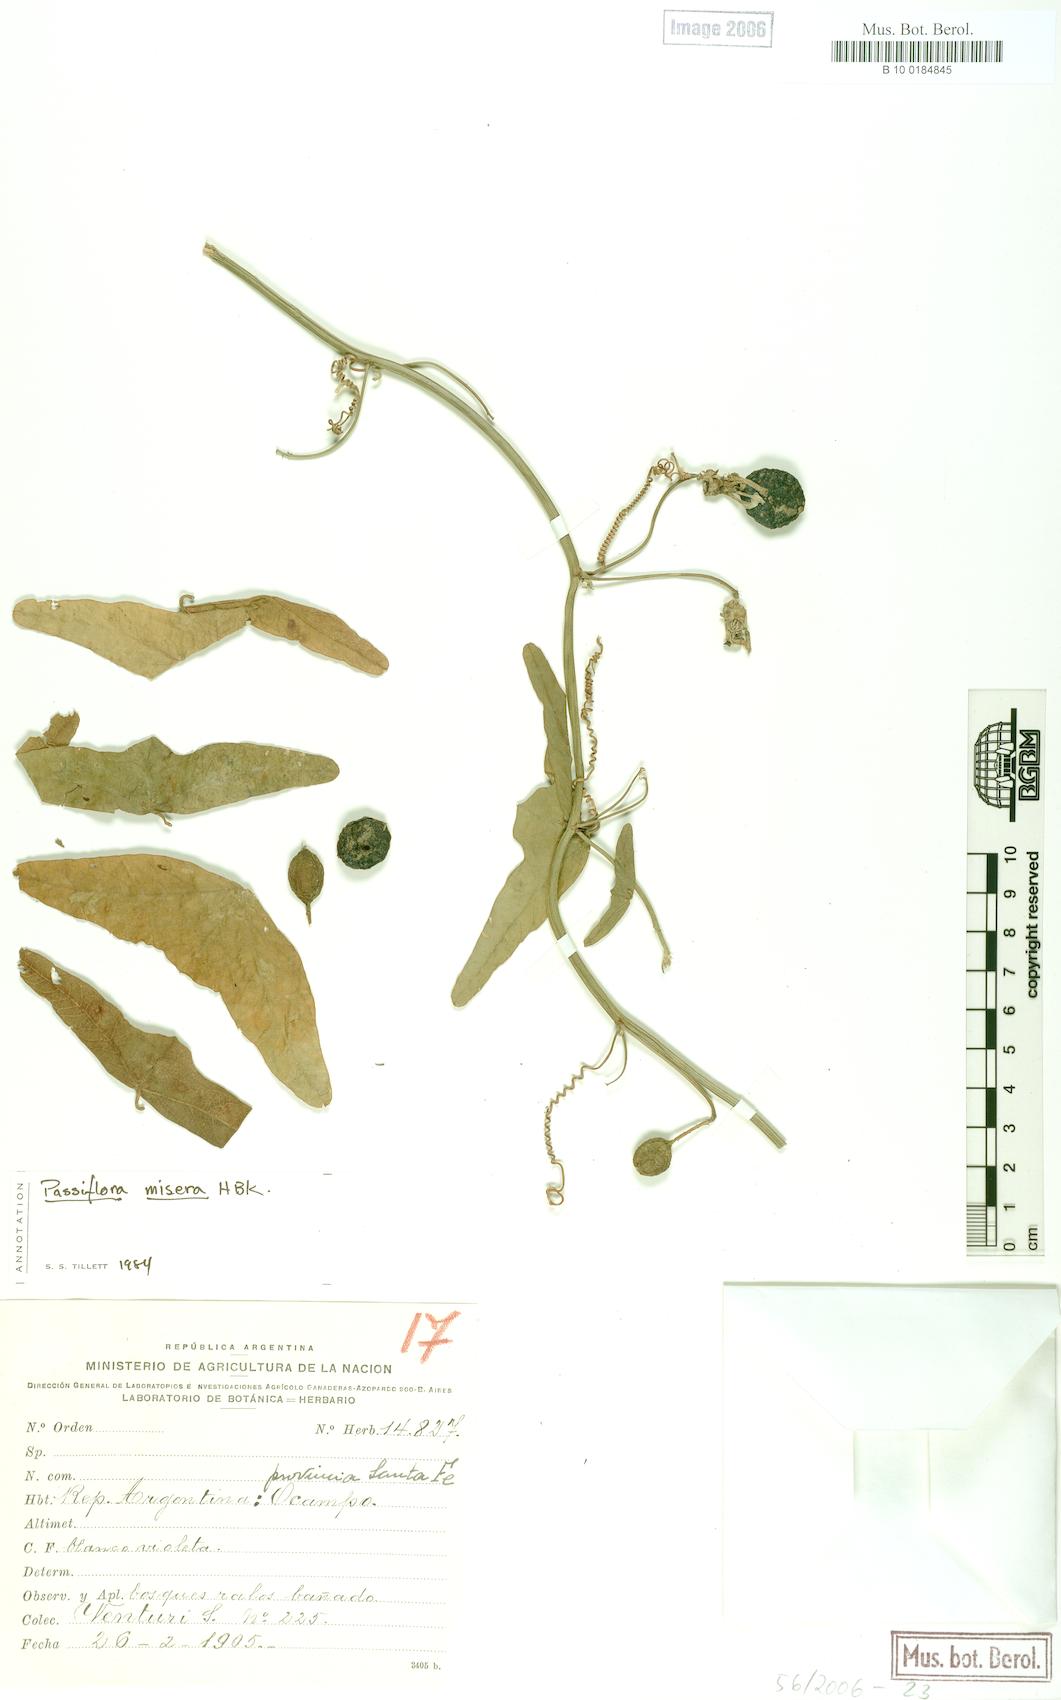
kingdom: Plantae
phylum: Tracheophyta
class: Magnoliopsida
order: Malpighiales
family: Passifloraceae
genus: Passiflora
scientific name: Passiflora misera
